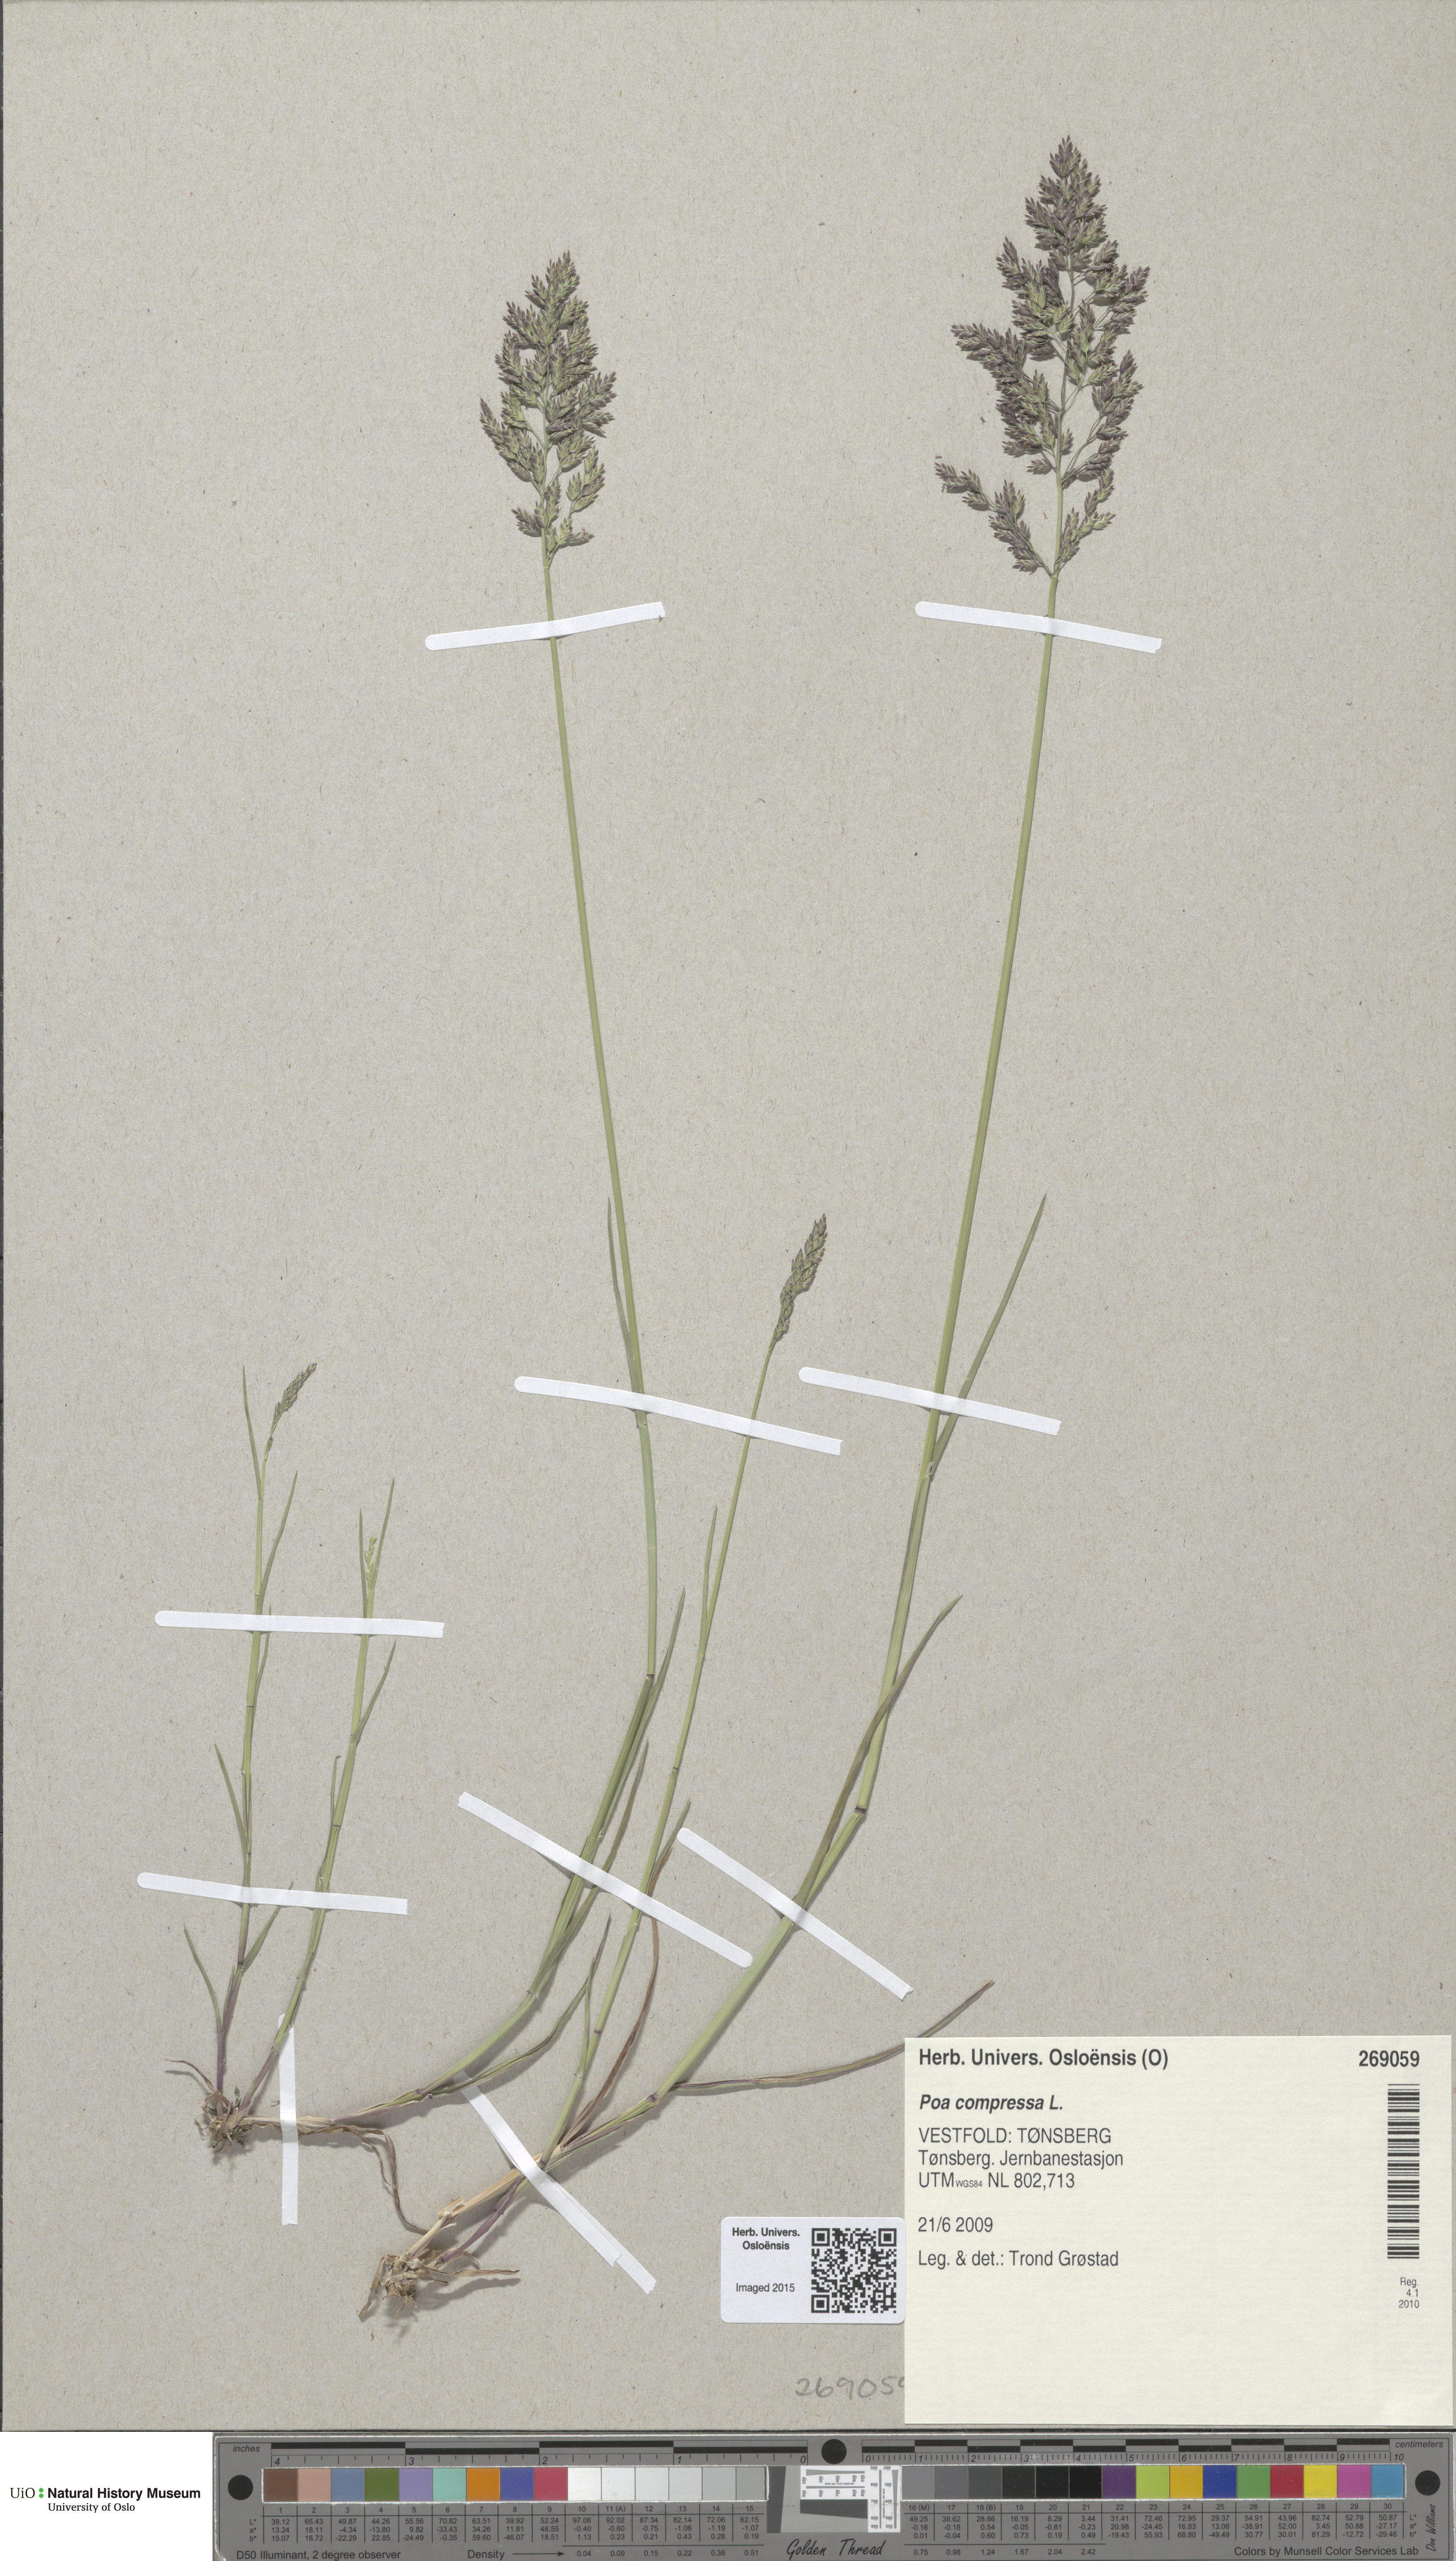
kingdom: Plantae
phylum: Tracheophyta
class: Liliopsida
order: Poales
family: Poaceae
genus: Poa
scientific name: Poa compressa
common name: Canada bluegrass
